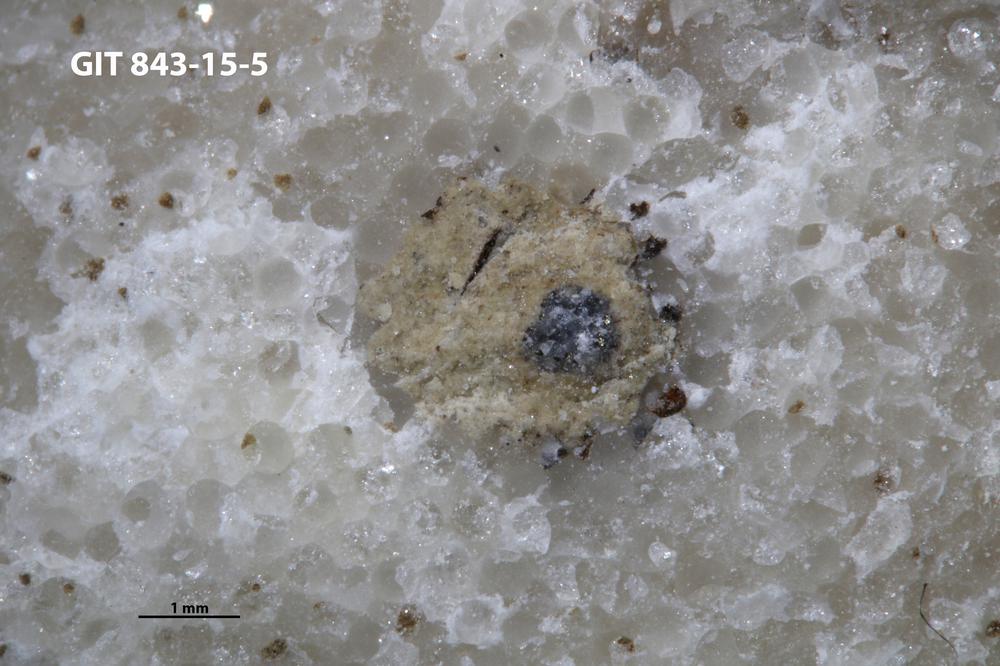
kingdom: Animalia
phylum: Sipuncula
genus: Trypanites
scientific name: Trypanites
